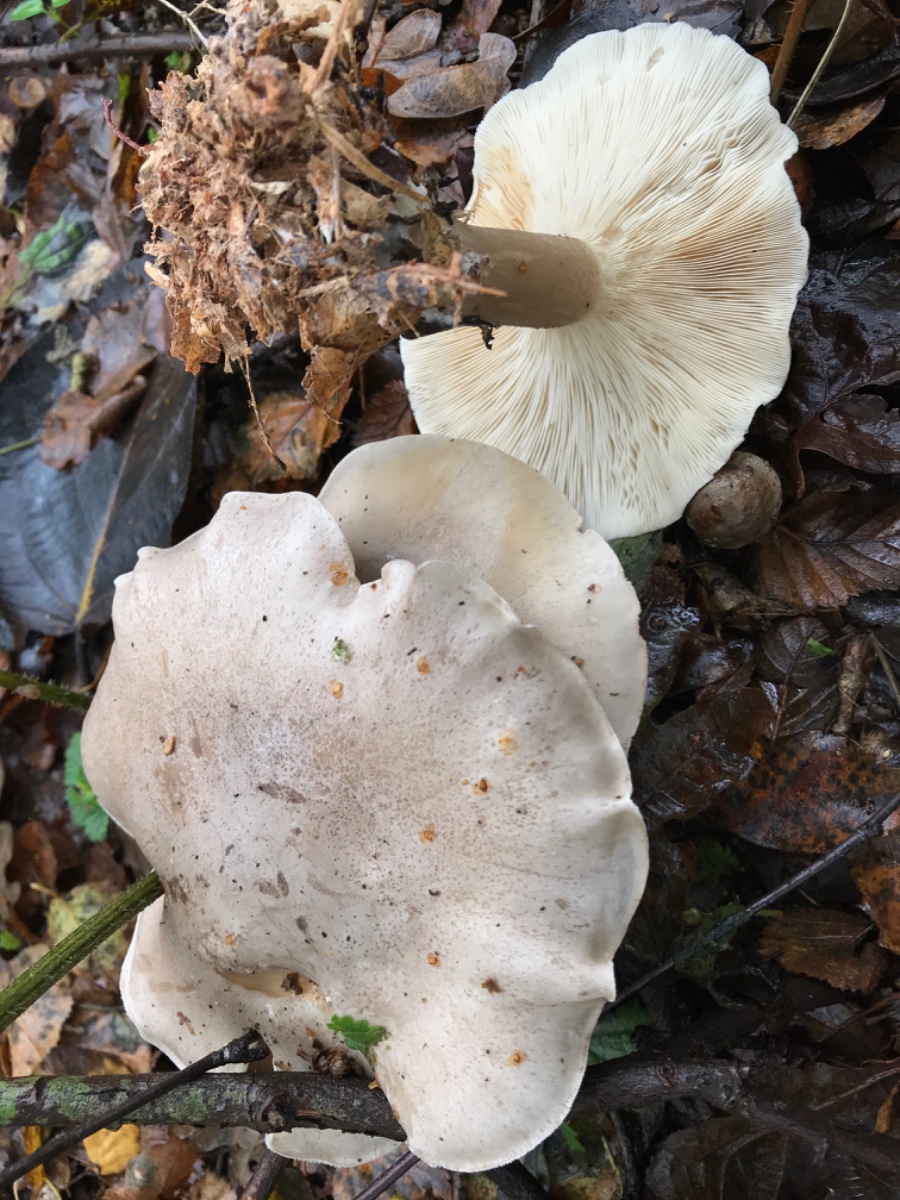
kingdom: Fungi
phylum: Basidiomycota
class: Agaricomycetes
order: Agaricales
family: Tricholomataceae
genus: Clitocybe
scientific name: Clitocybe nebularis
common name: tåge-tragthat
